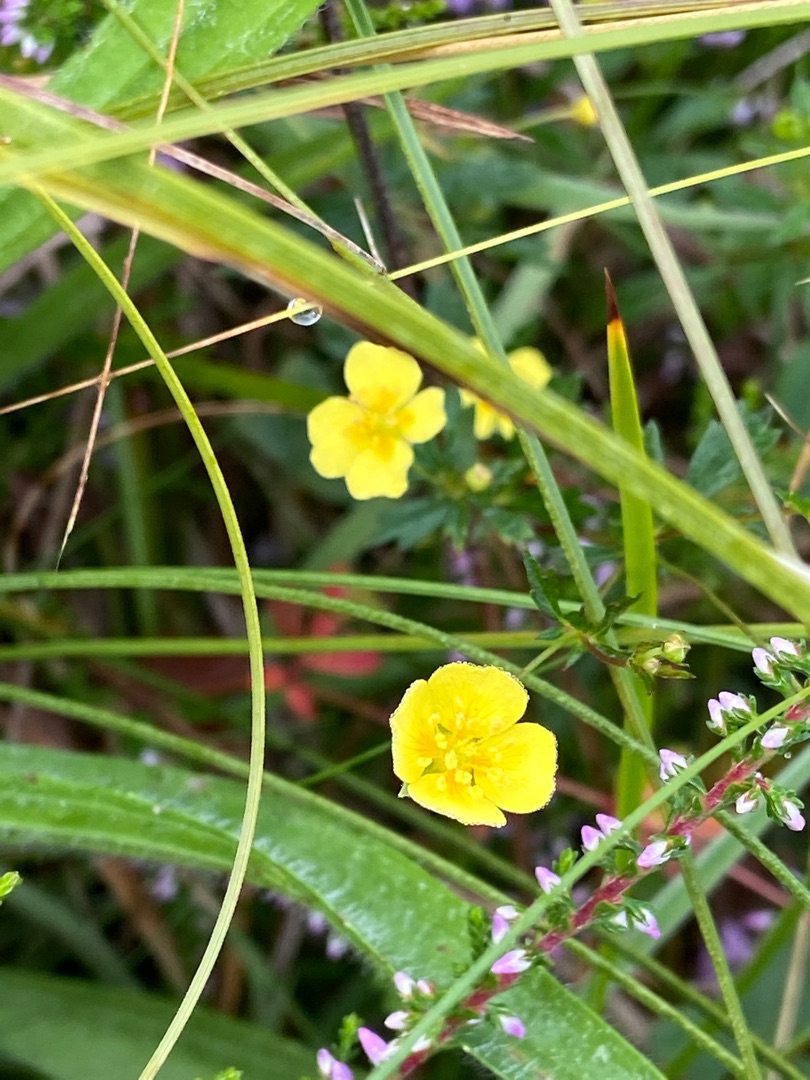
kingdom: Plantae
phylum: Tracheophyta
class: Magnoliopsida
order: Rosales
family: Rosaceae
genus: Potentilla
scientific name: Potentilla erecta
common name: Tormentil
